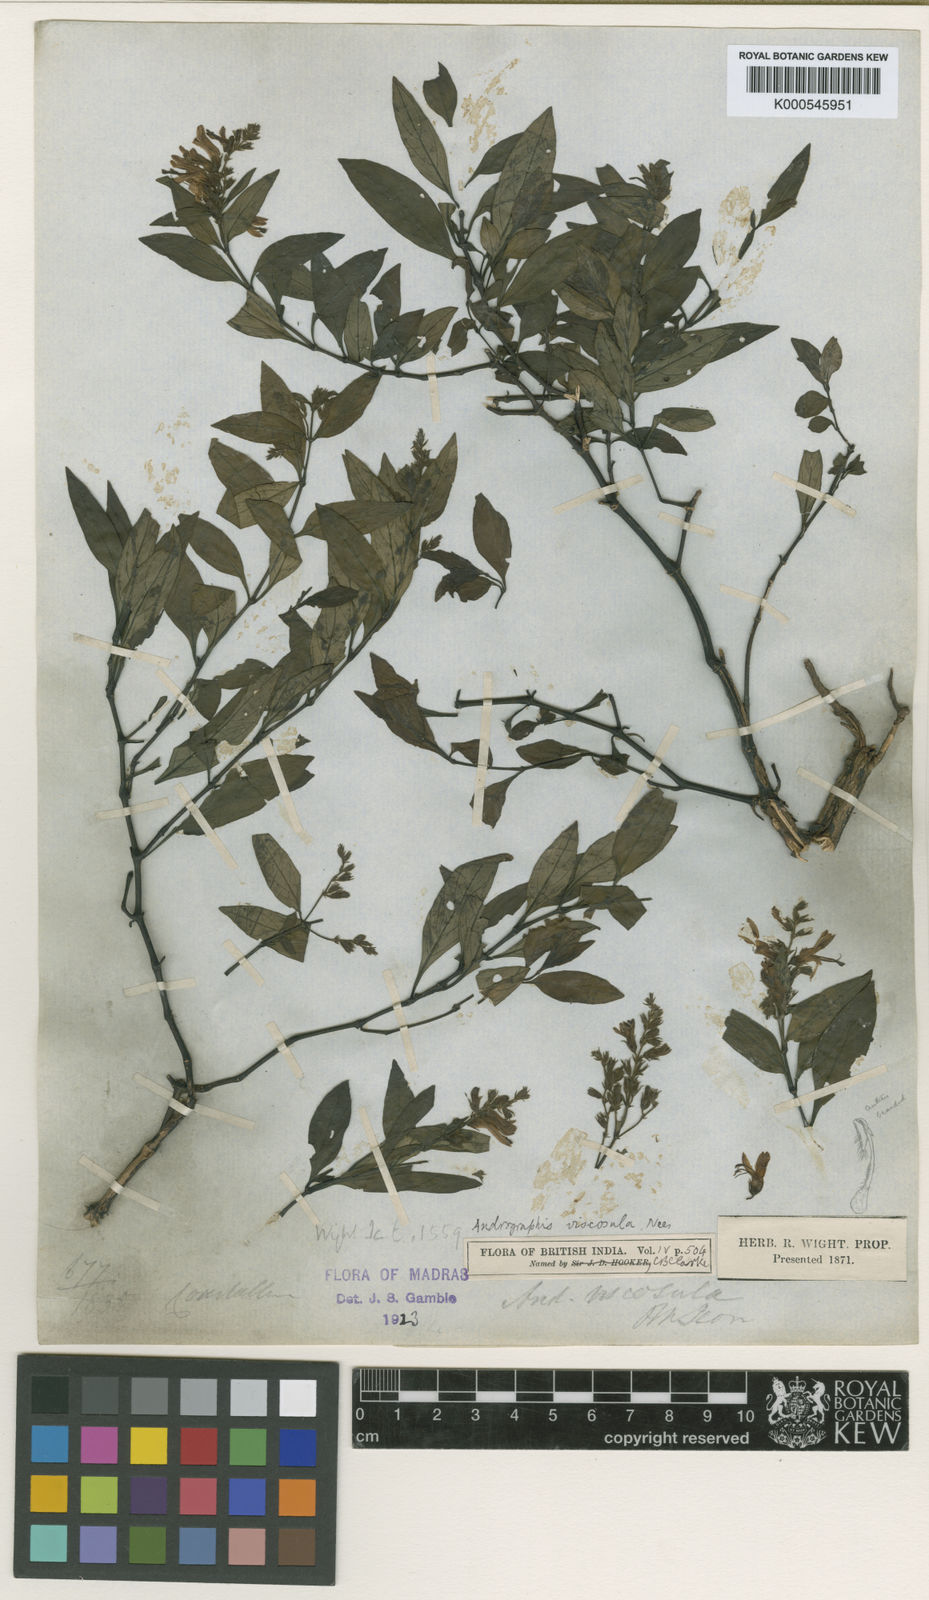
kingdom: Plantae
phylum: Tracheophyta
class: Magnoliopsida
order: Lamiales
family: Acanthaceae
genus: Andrographis
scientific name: Andrographis viscosula
